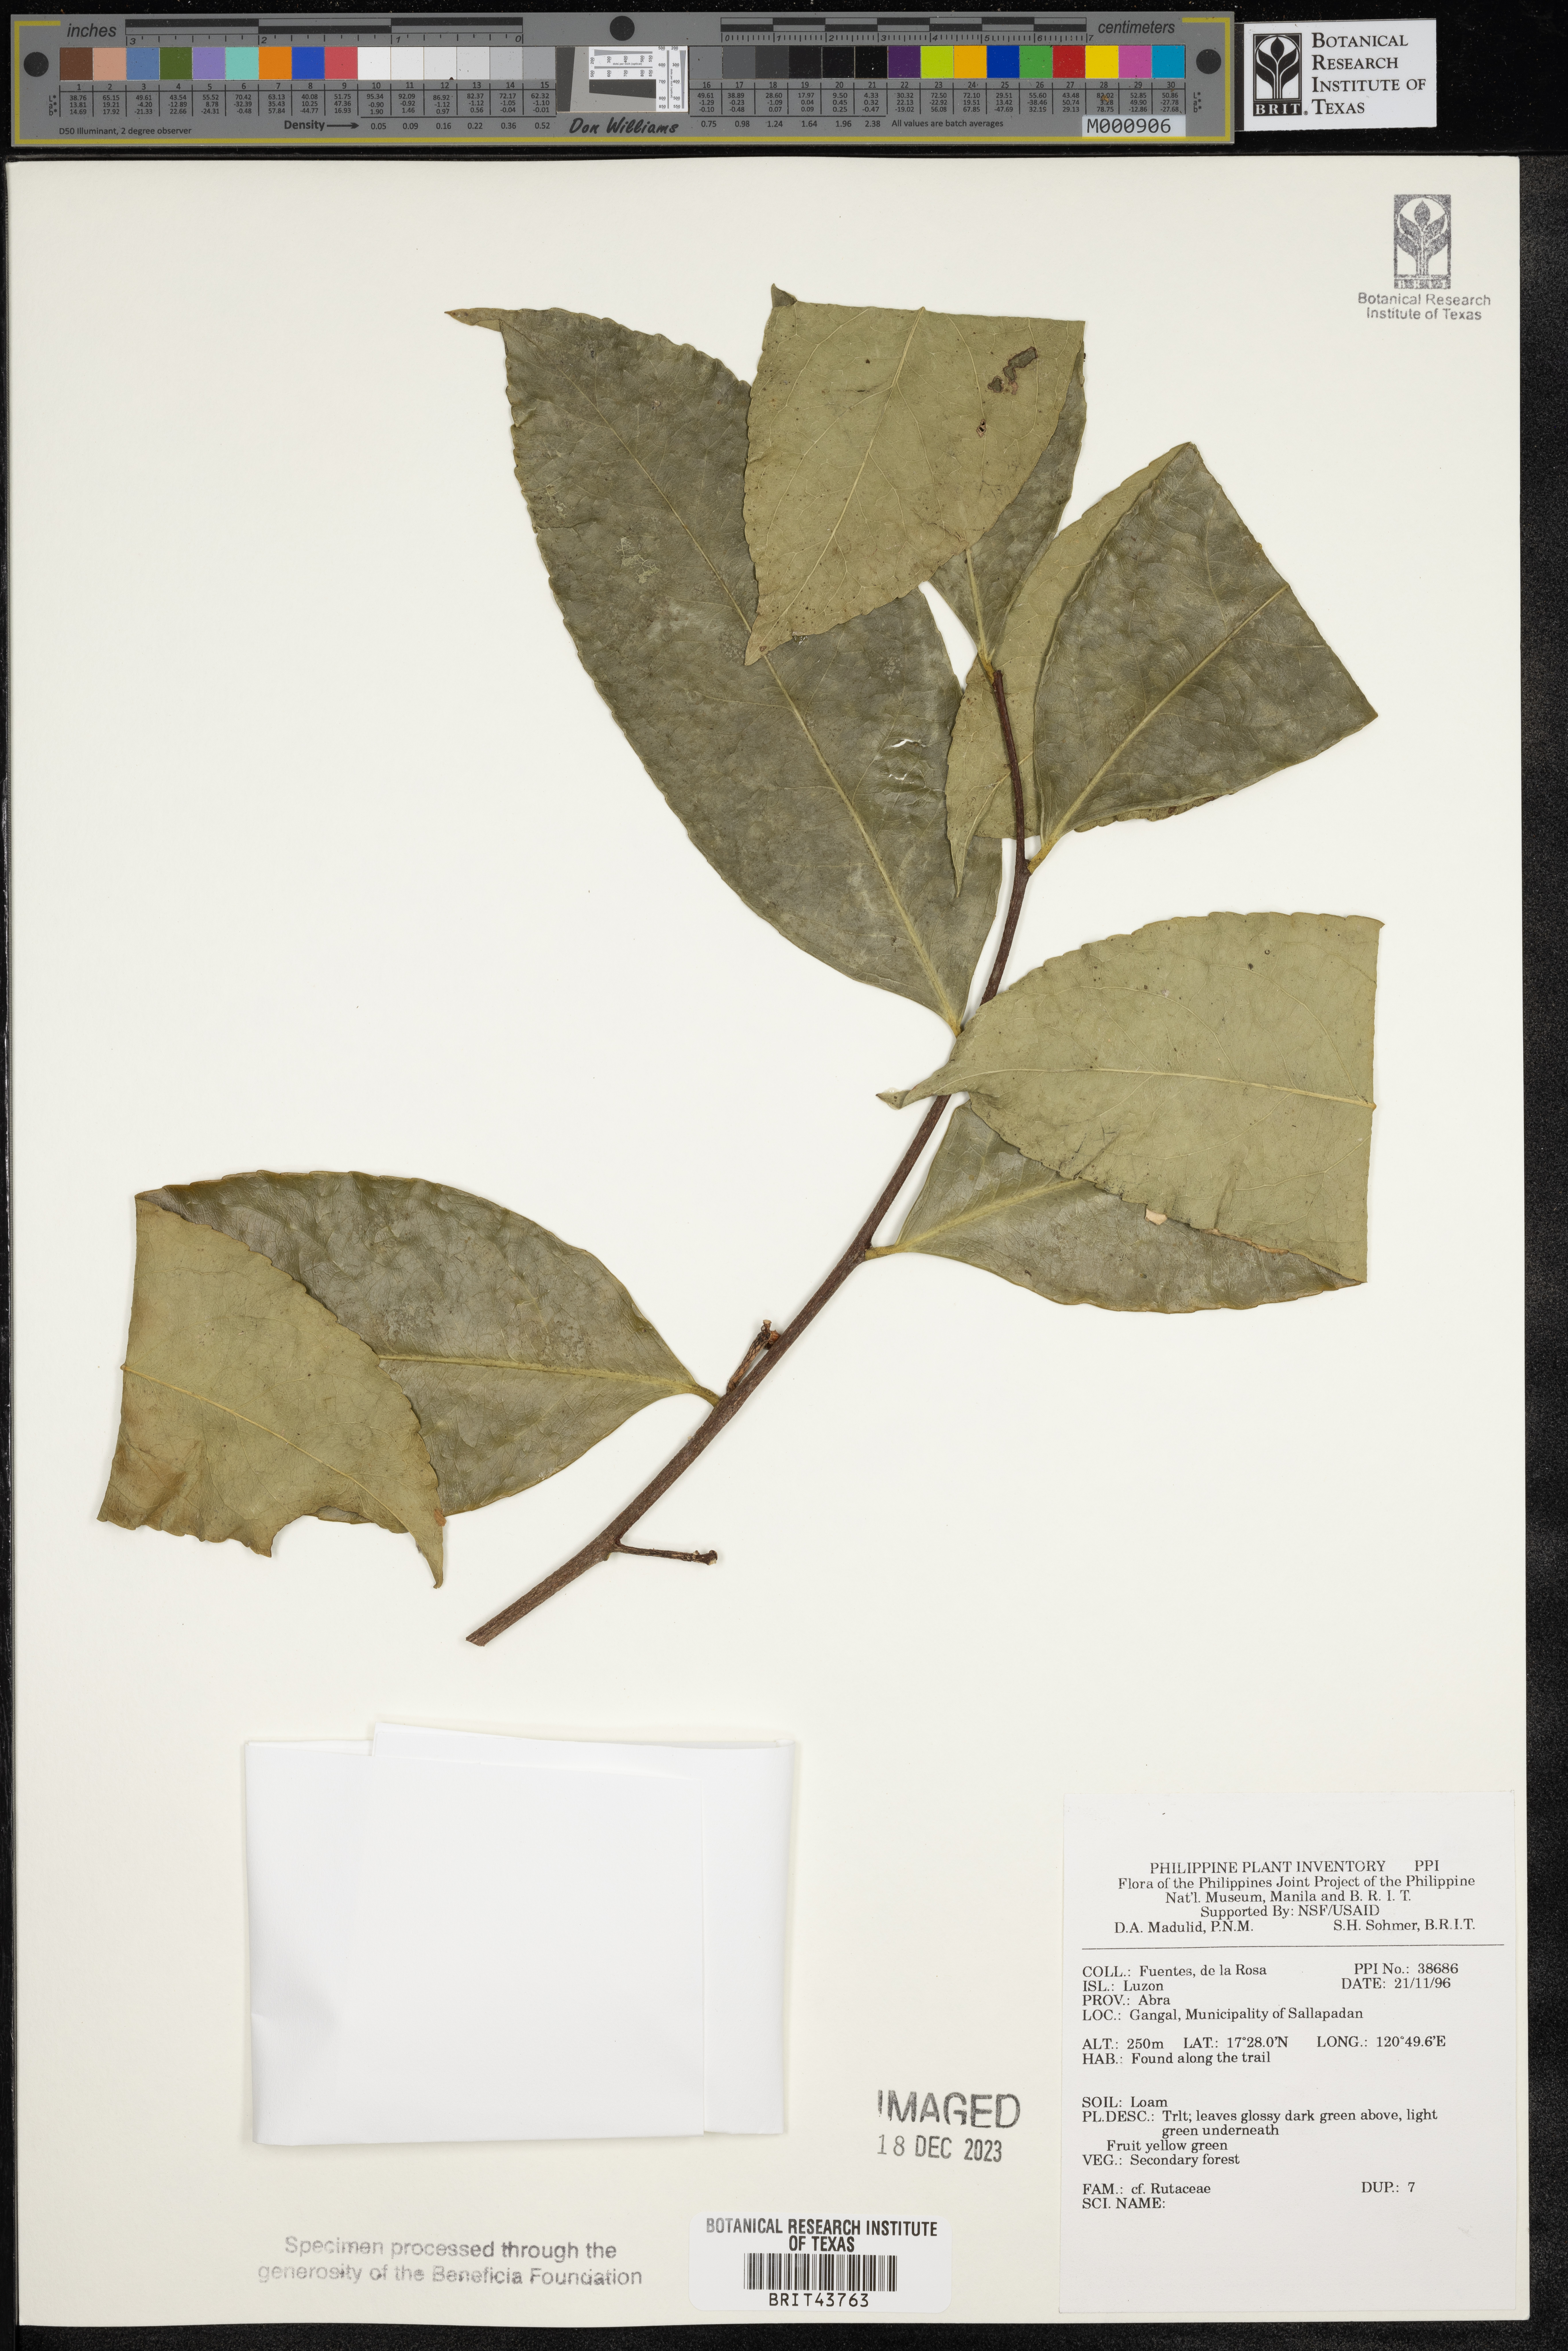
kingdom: Plantae
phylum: Tracheophyta
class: Magnoliopsida
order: Sapindales
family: Rutaceae
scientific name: Rutaceae
